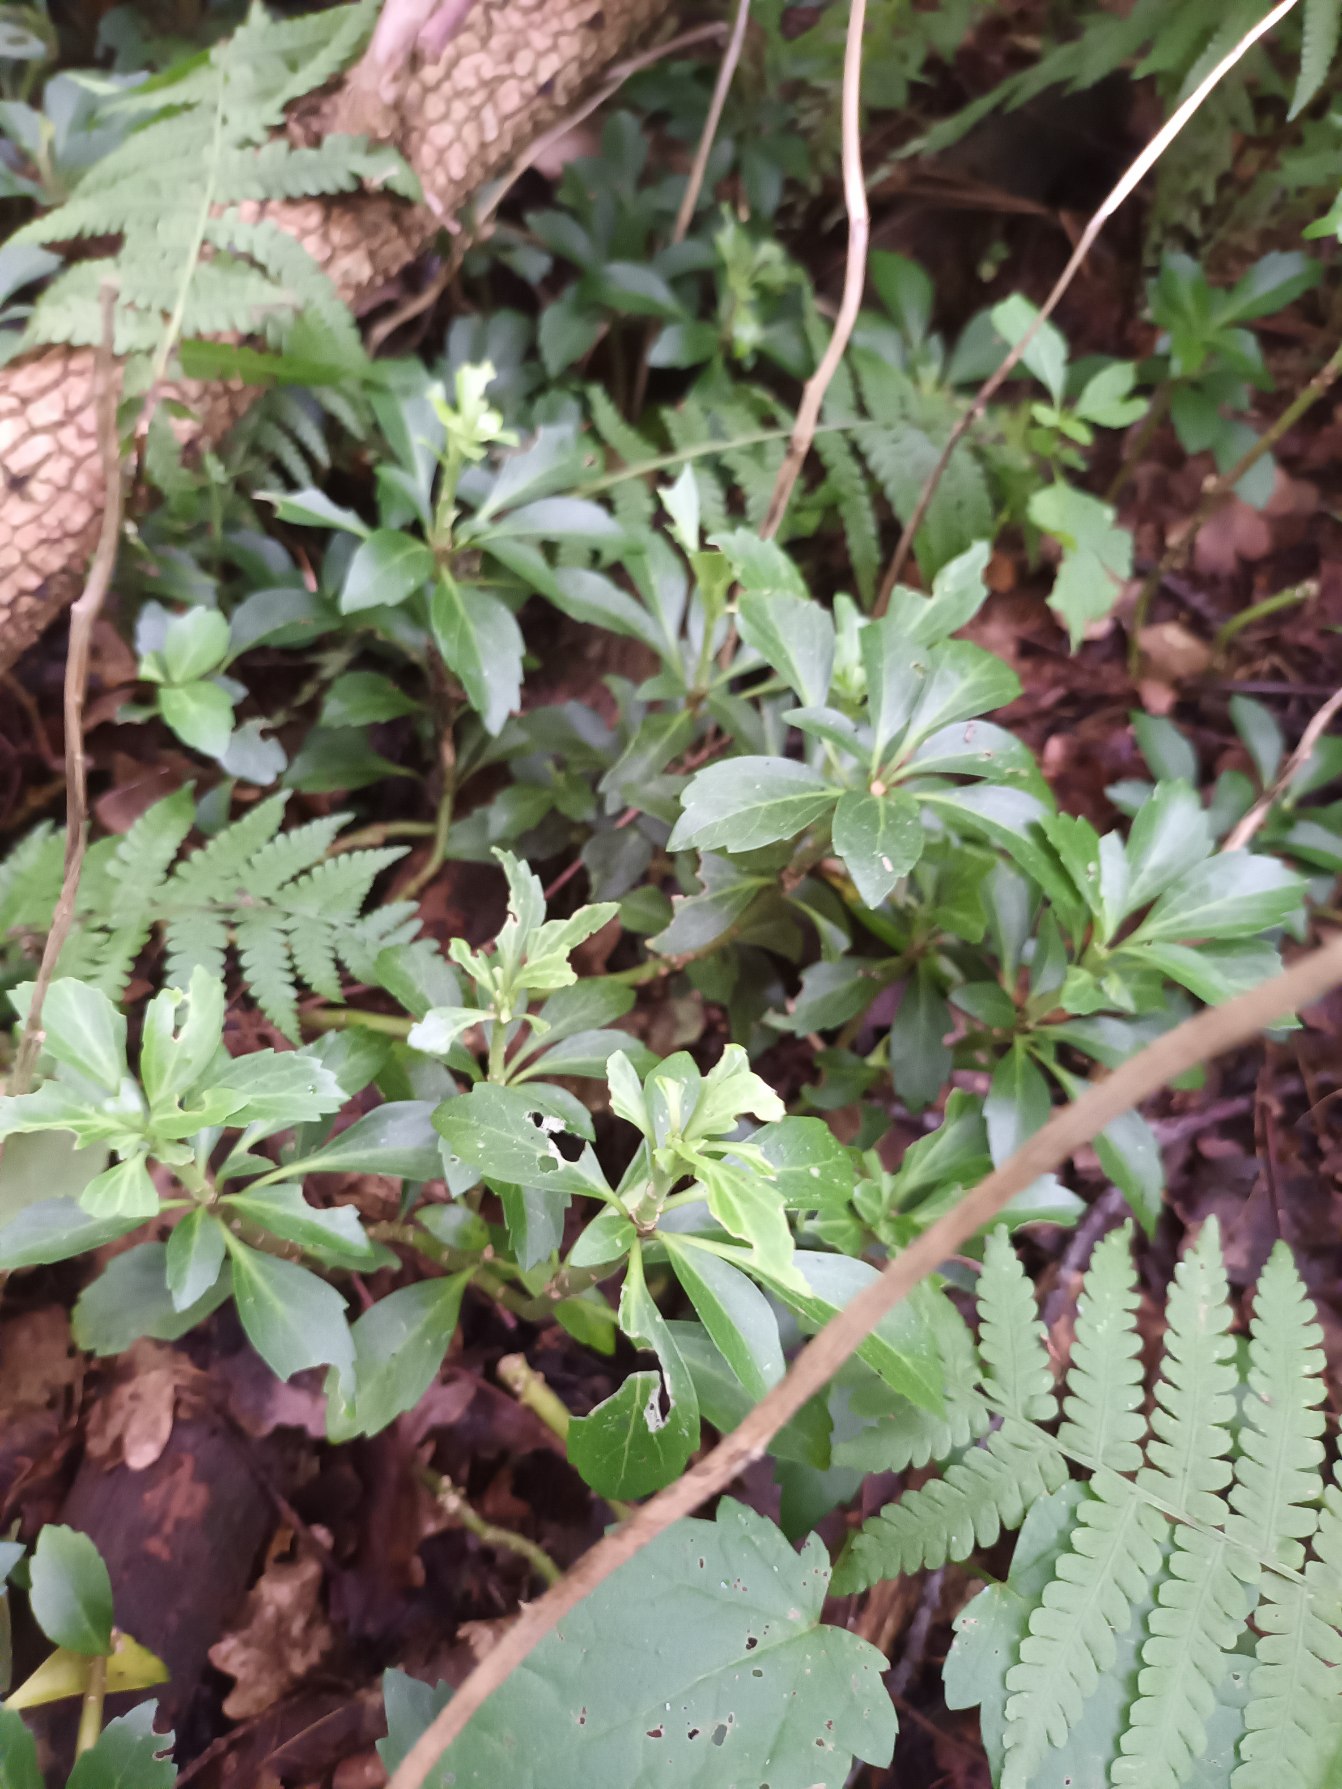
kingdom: Plantae
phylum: Tracheophyta
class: Magnoliopsida
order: Buxales
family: Buxaceae
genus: Pachysandra
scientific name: Pachysandra terminalis
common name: Vinterglans
